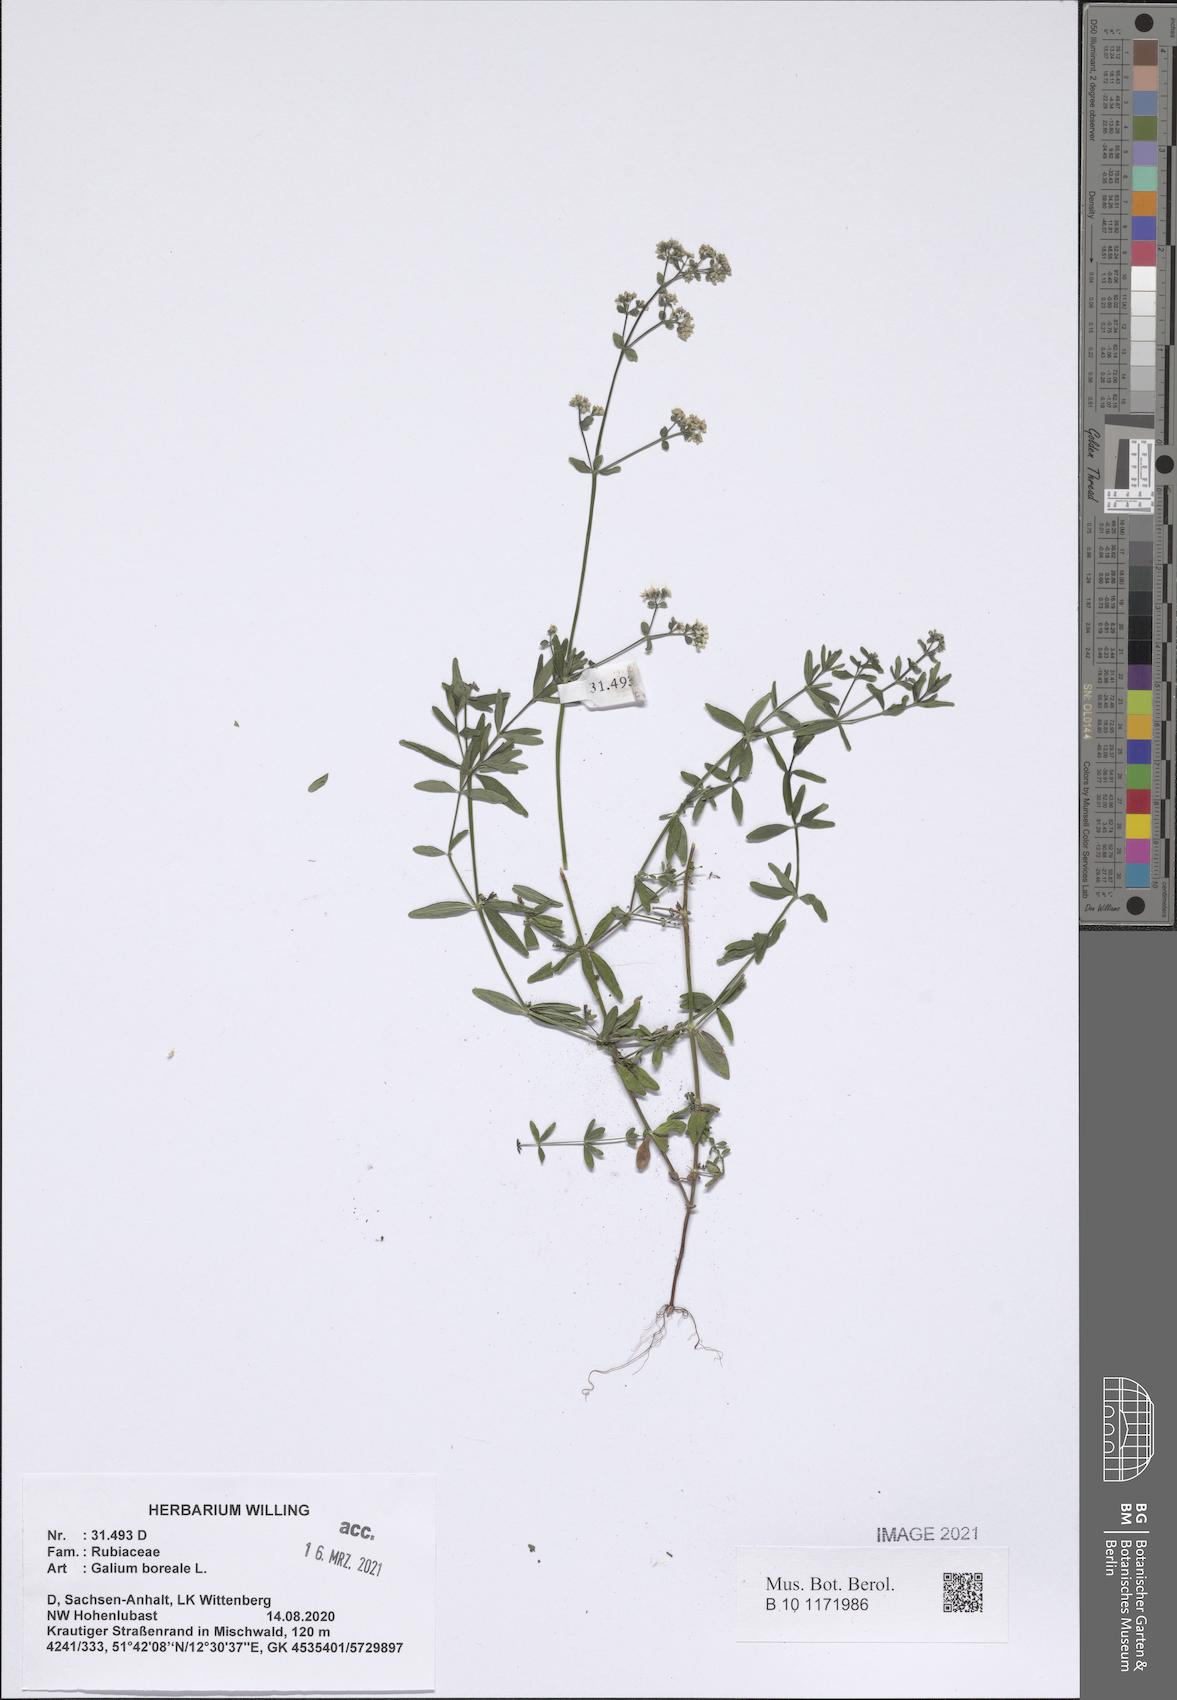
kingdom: Plantae
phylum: Tracheophyta
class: Magnoliopsida
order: Gentianales
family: Rubiaceae
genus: Galium
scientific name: Galium boreale
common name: Northern bedstraw
